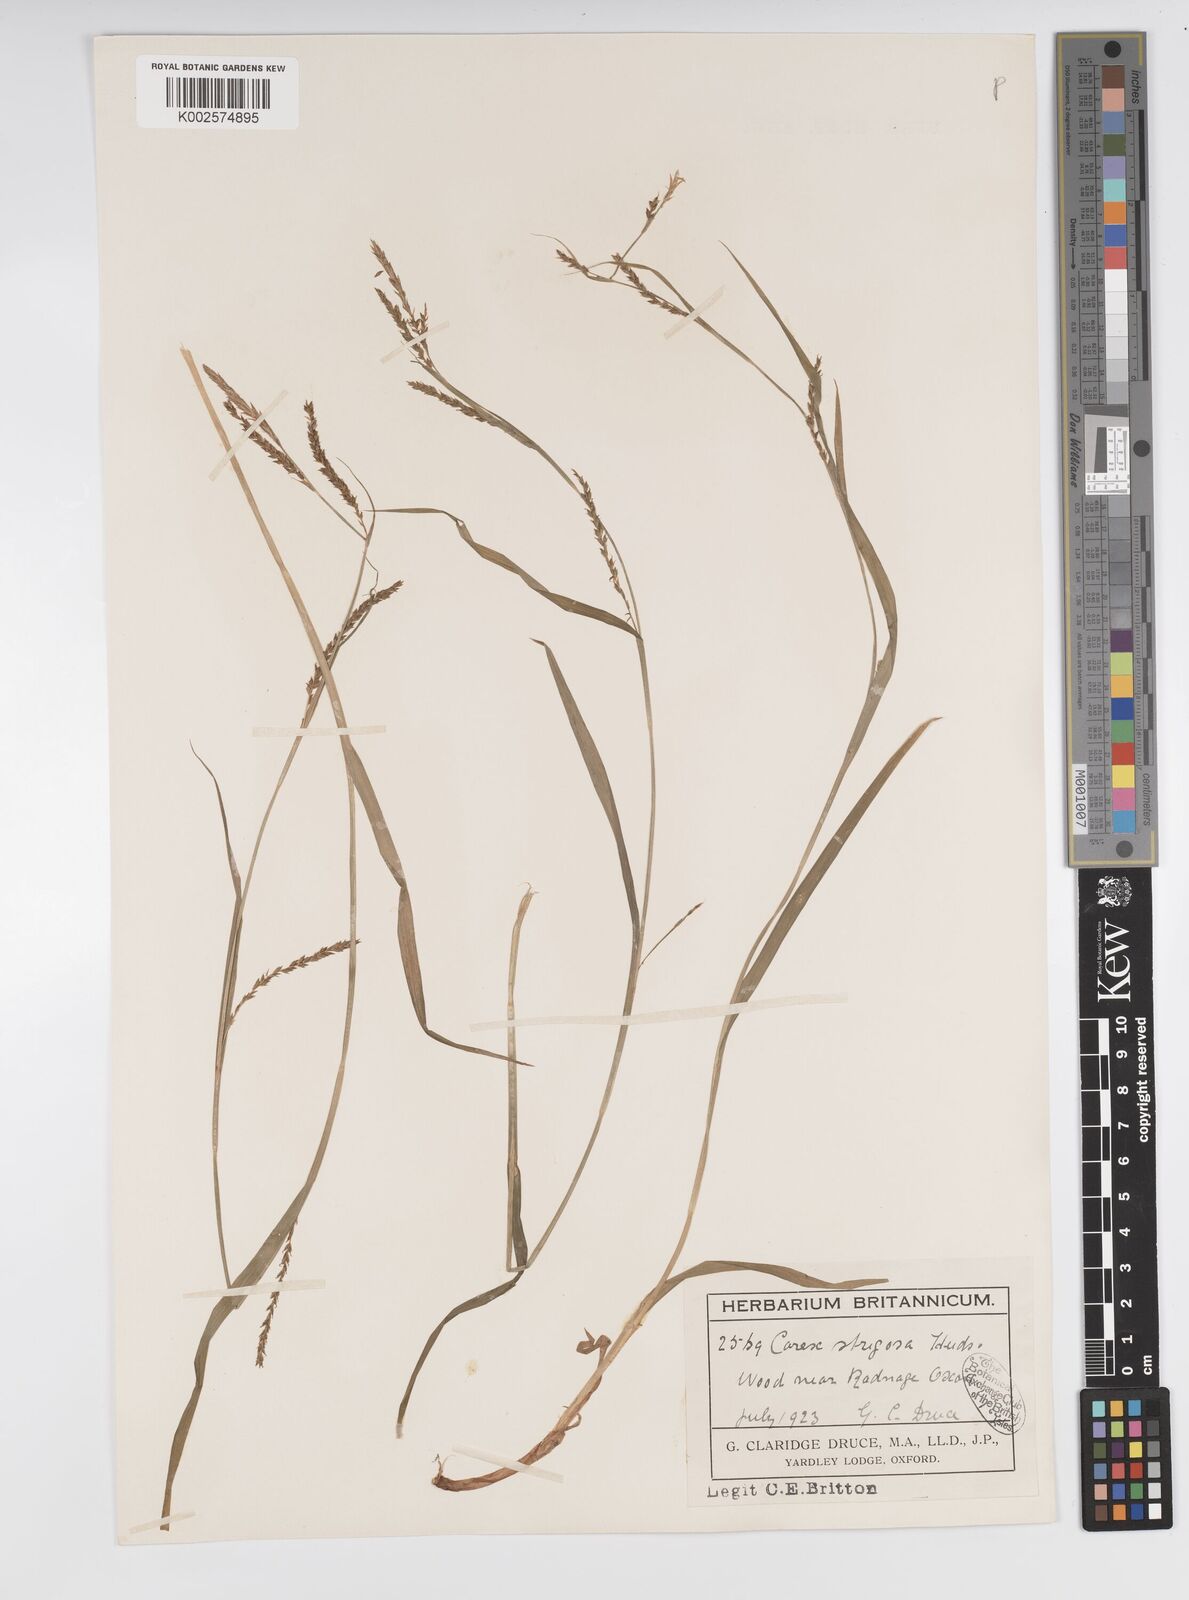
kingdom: Plantae
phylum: Tracheophyta
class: Liliopsida
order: Poales
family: Cyperaceae
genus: Carex
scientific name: Carex strigosa
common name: Thin-spiked wood-sedge
